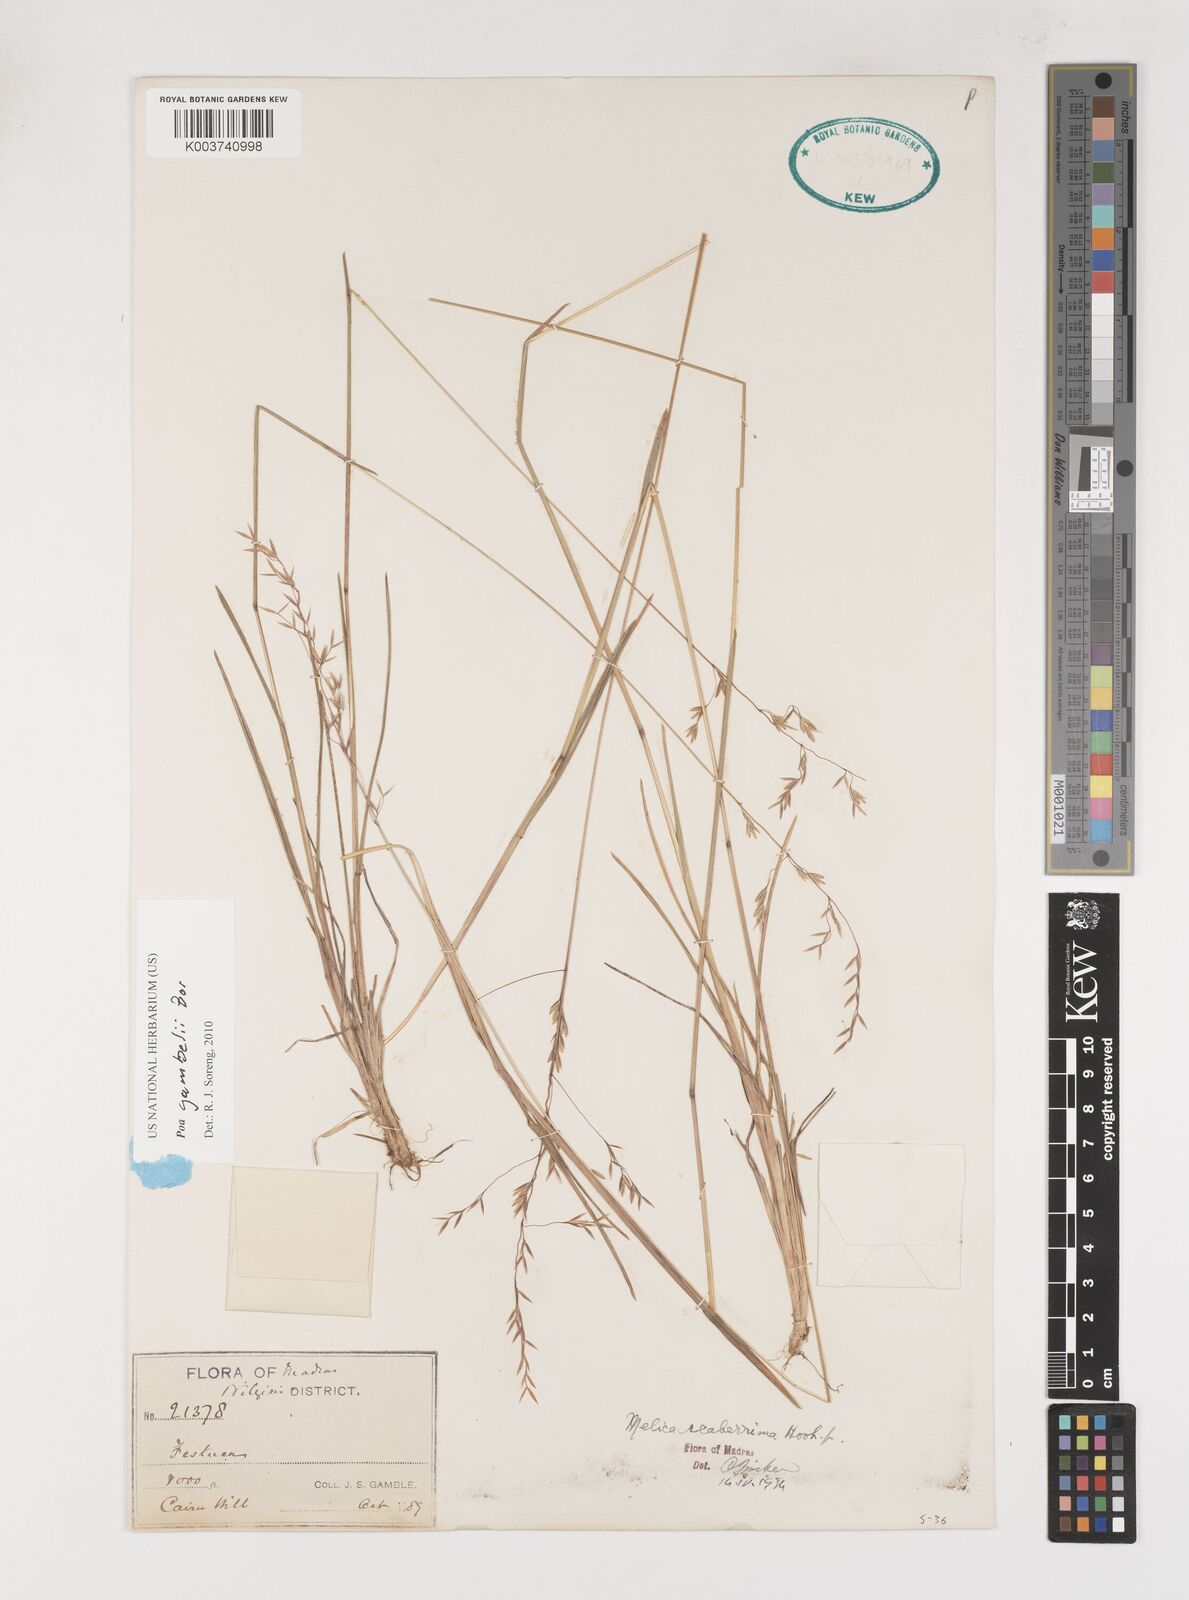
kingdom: Plantae
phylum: Tracheophyta
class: Liliopsida
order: Poales
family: Poaceae
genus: Poa
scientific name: Poa gamblei
